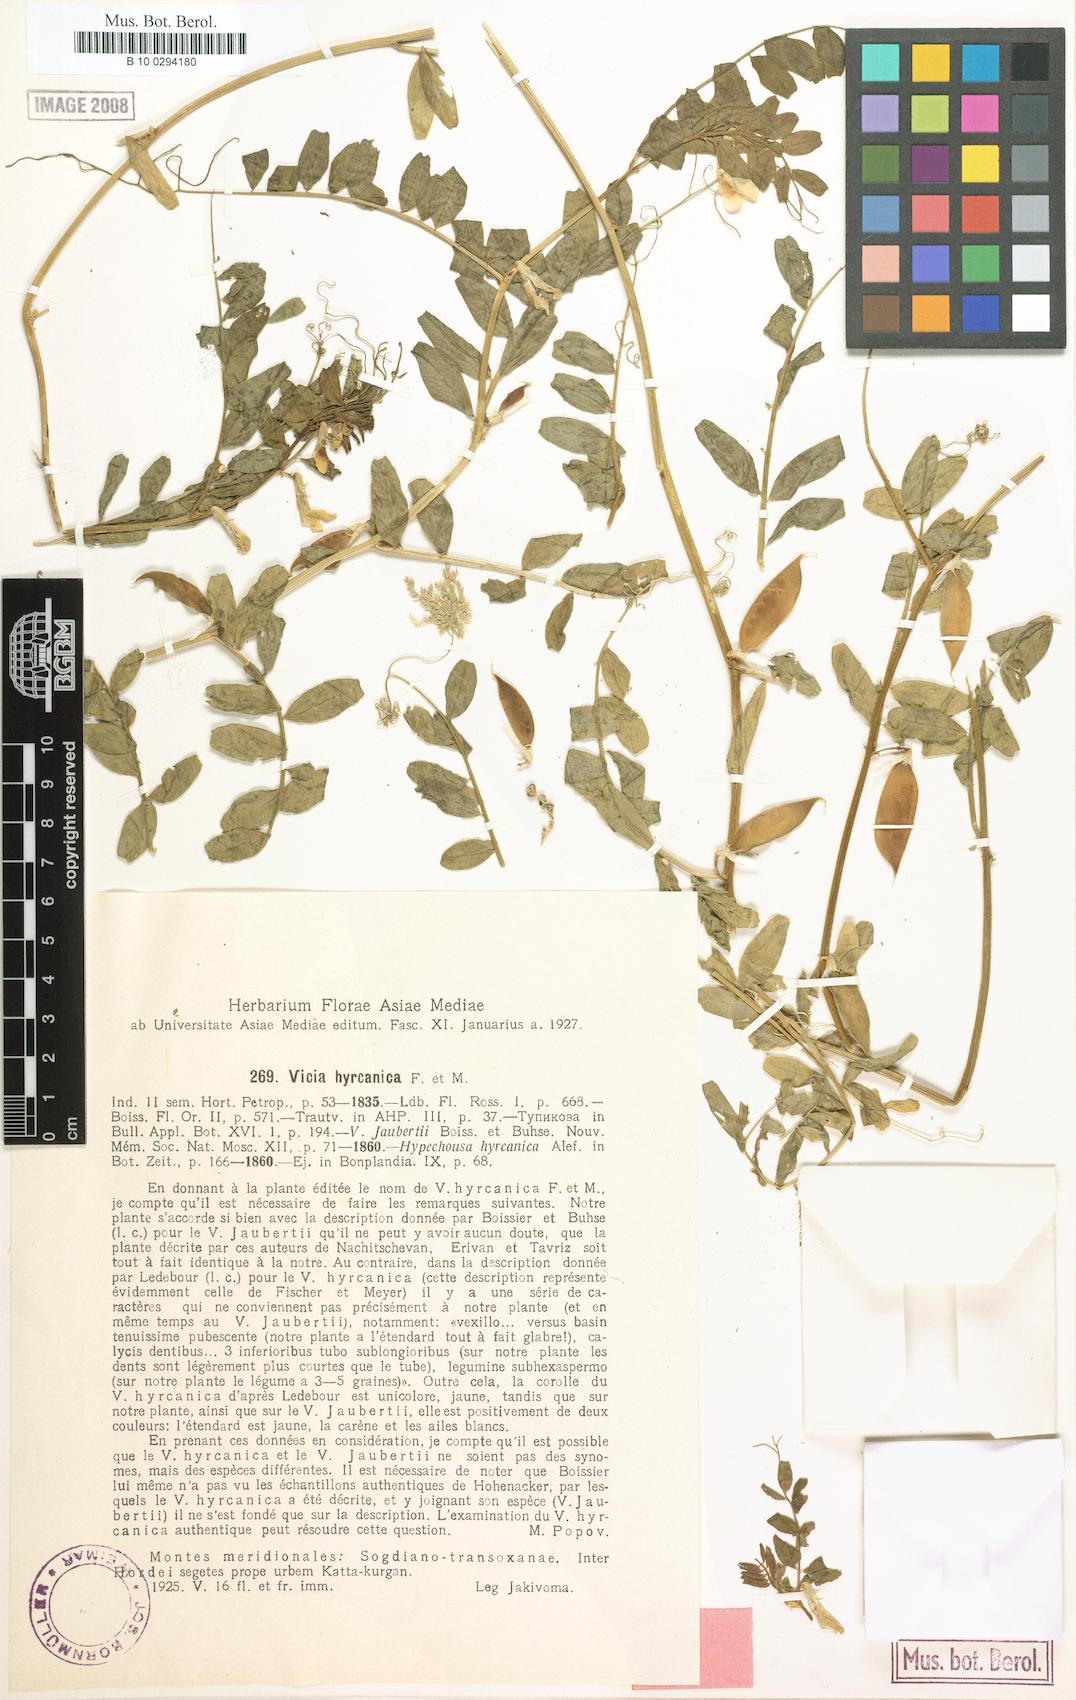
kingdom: Plantae
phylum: Tracheophyta
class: Magnoliopsida
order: Fabales
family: Fabaceae
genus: Vicia
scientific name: Vicia hyrcanica
